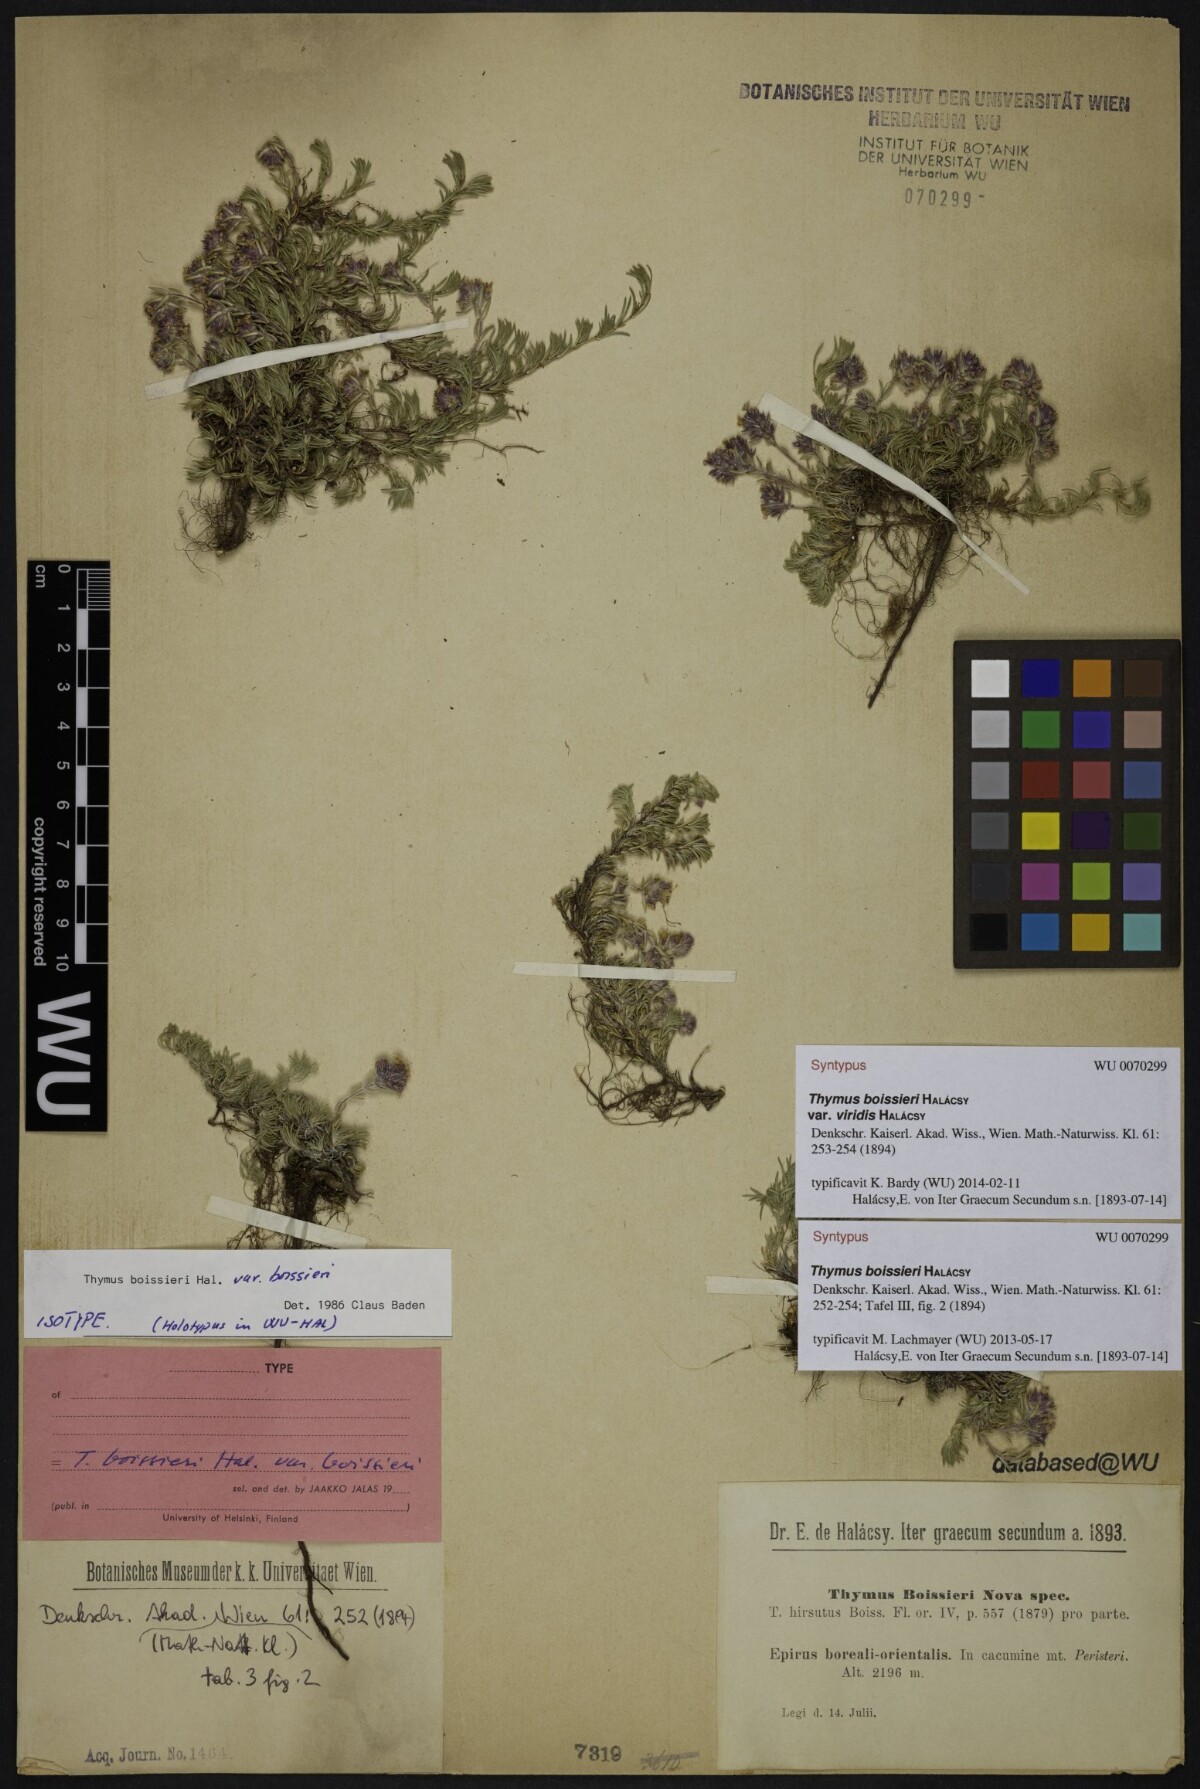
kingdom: Plantae
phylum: Tracheophyta
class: Magnoliopsida
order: Lamiales
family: Lamiaceae
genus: Thymus
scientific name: Thymus boissieri
